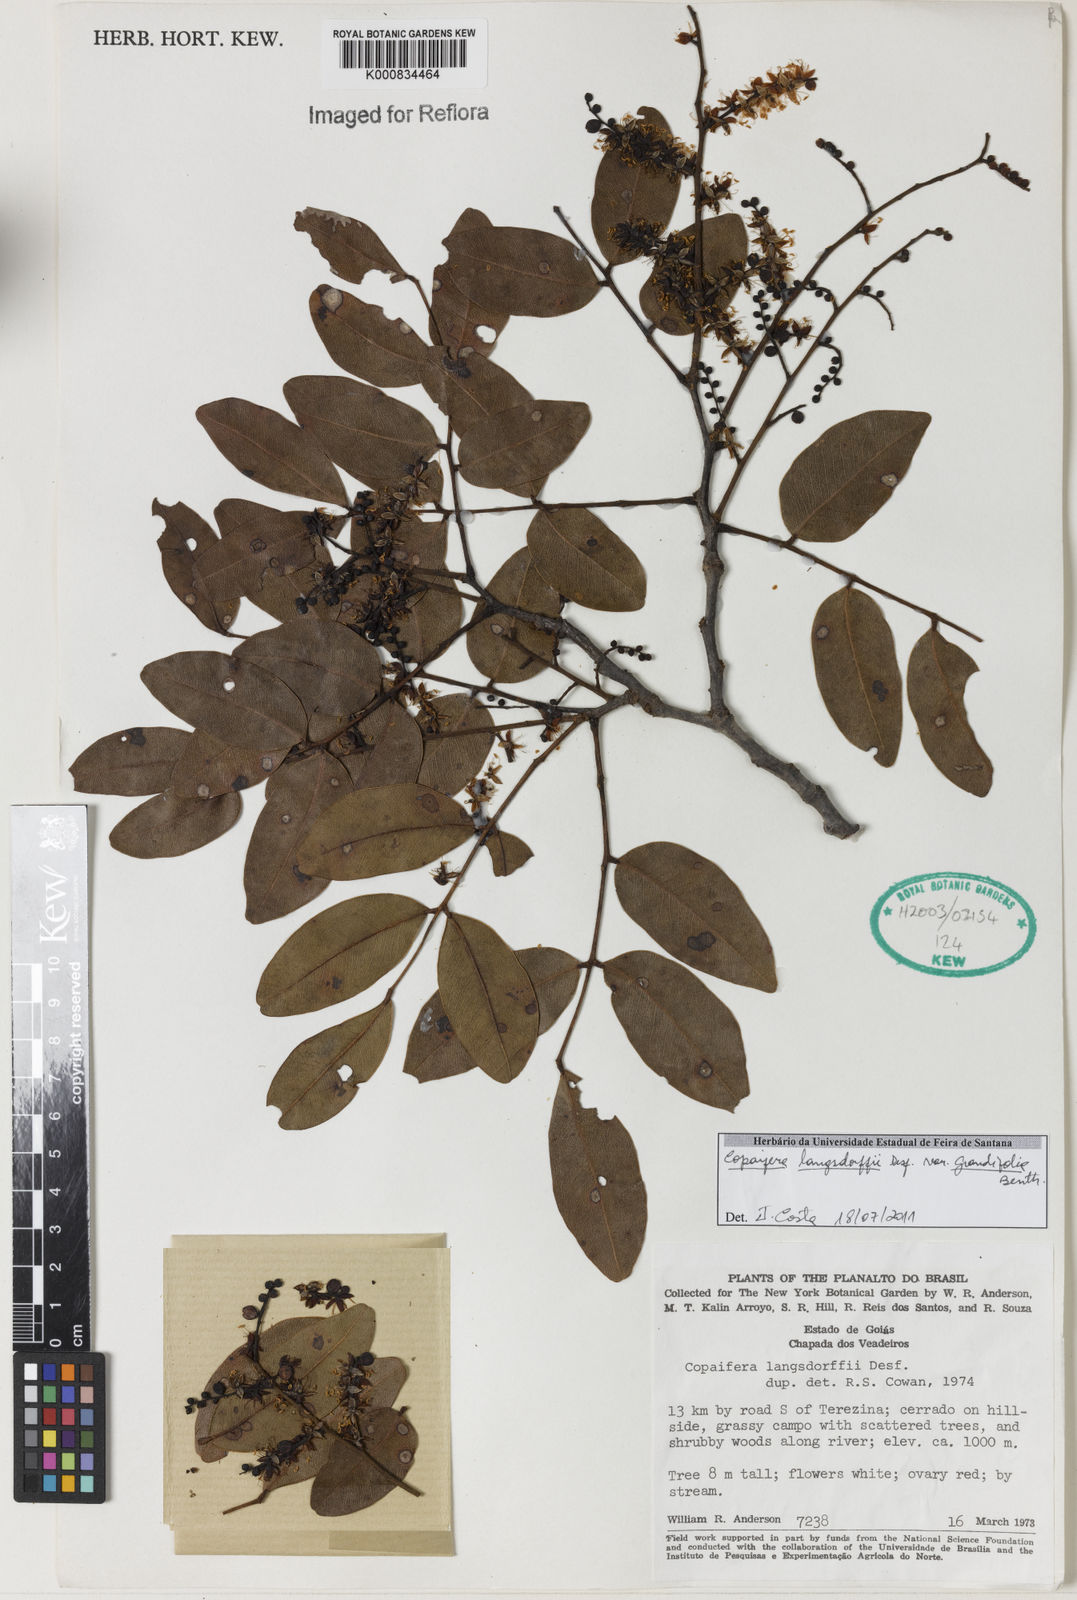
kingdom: Plantae
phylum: Tracheophyta
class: Magnoliopsida
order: Fabales
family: Fabaceae
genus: Copaifera
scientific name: Copaifera langsdorffii
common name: Brazilian diesel tree
